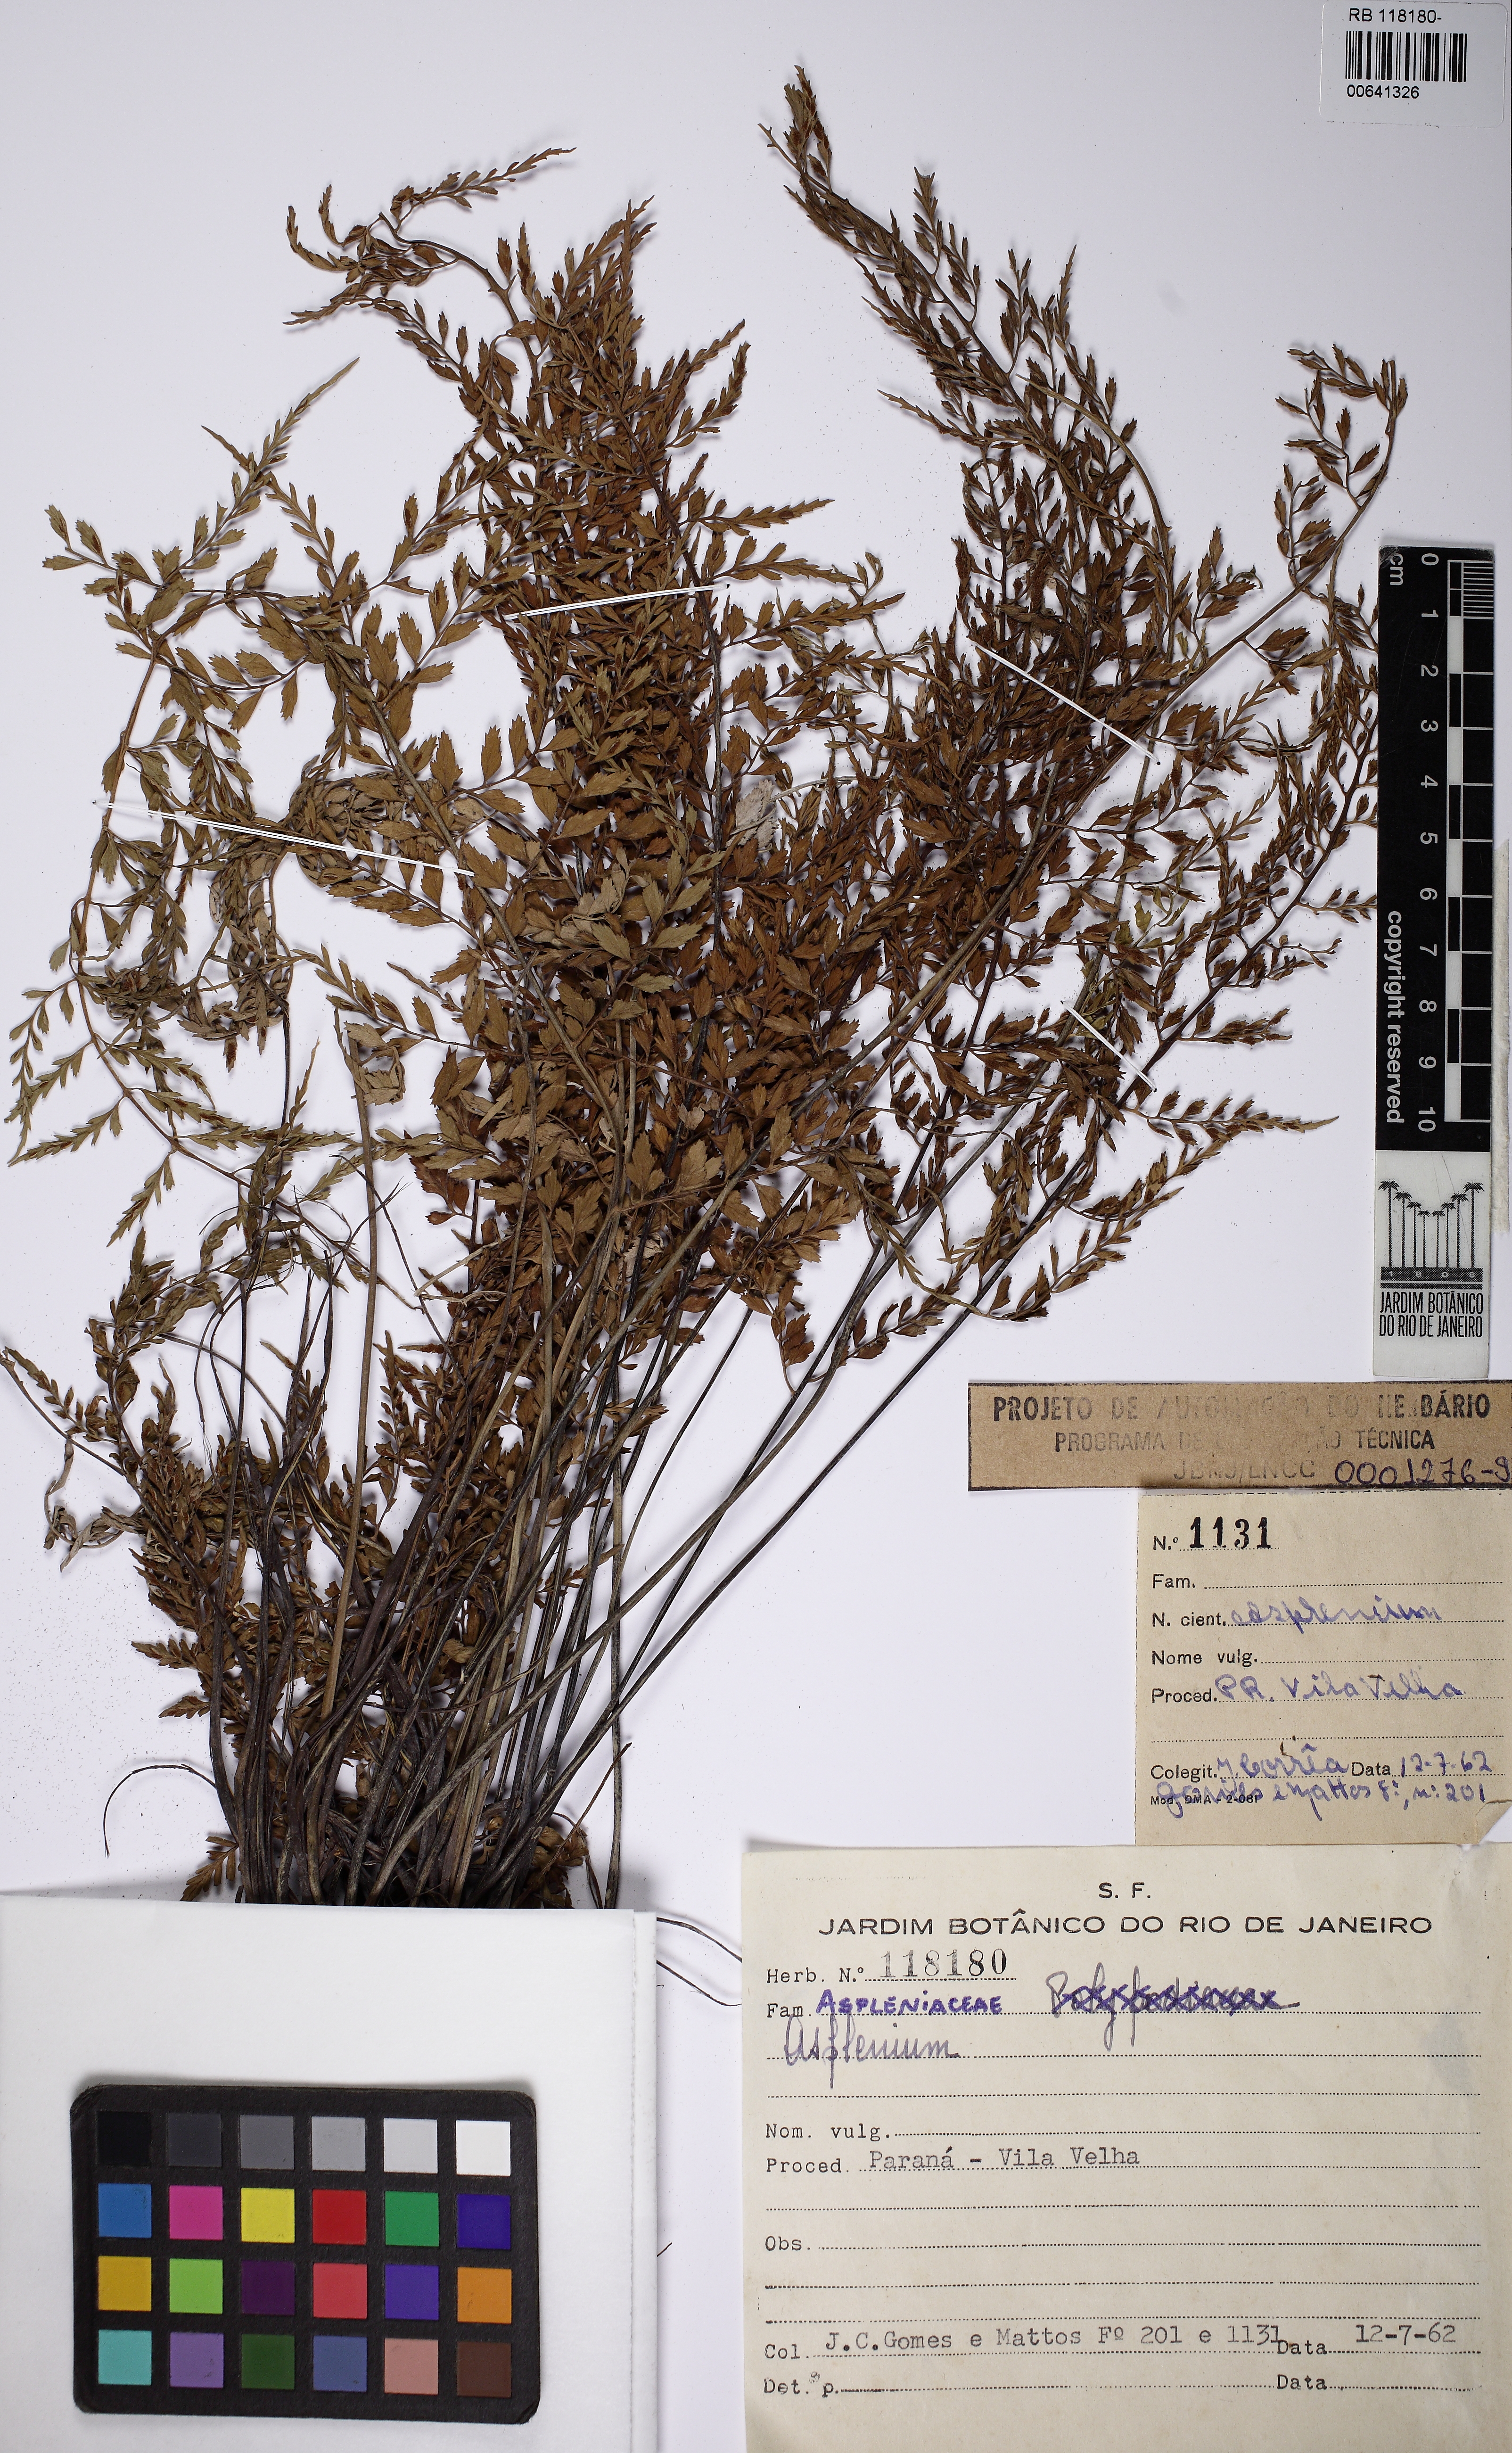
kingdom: Plantae
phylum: Tracheophyta
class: Polypodiopsida
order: Polypodiales
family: Aspleniaceae
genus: Asplenium
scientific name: Asplenium auritum
